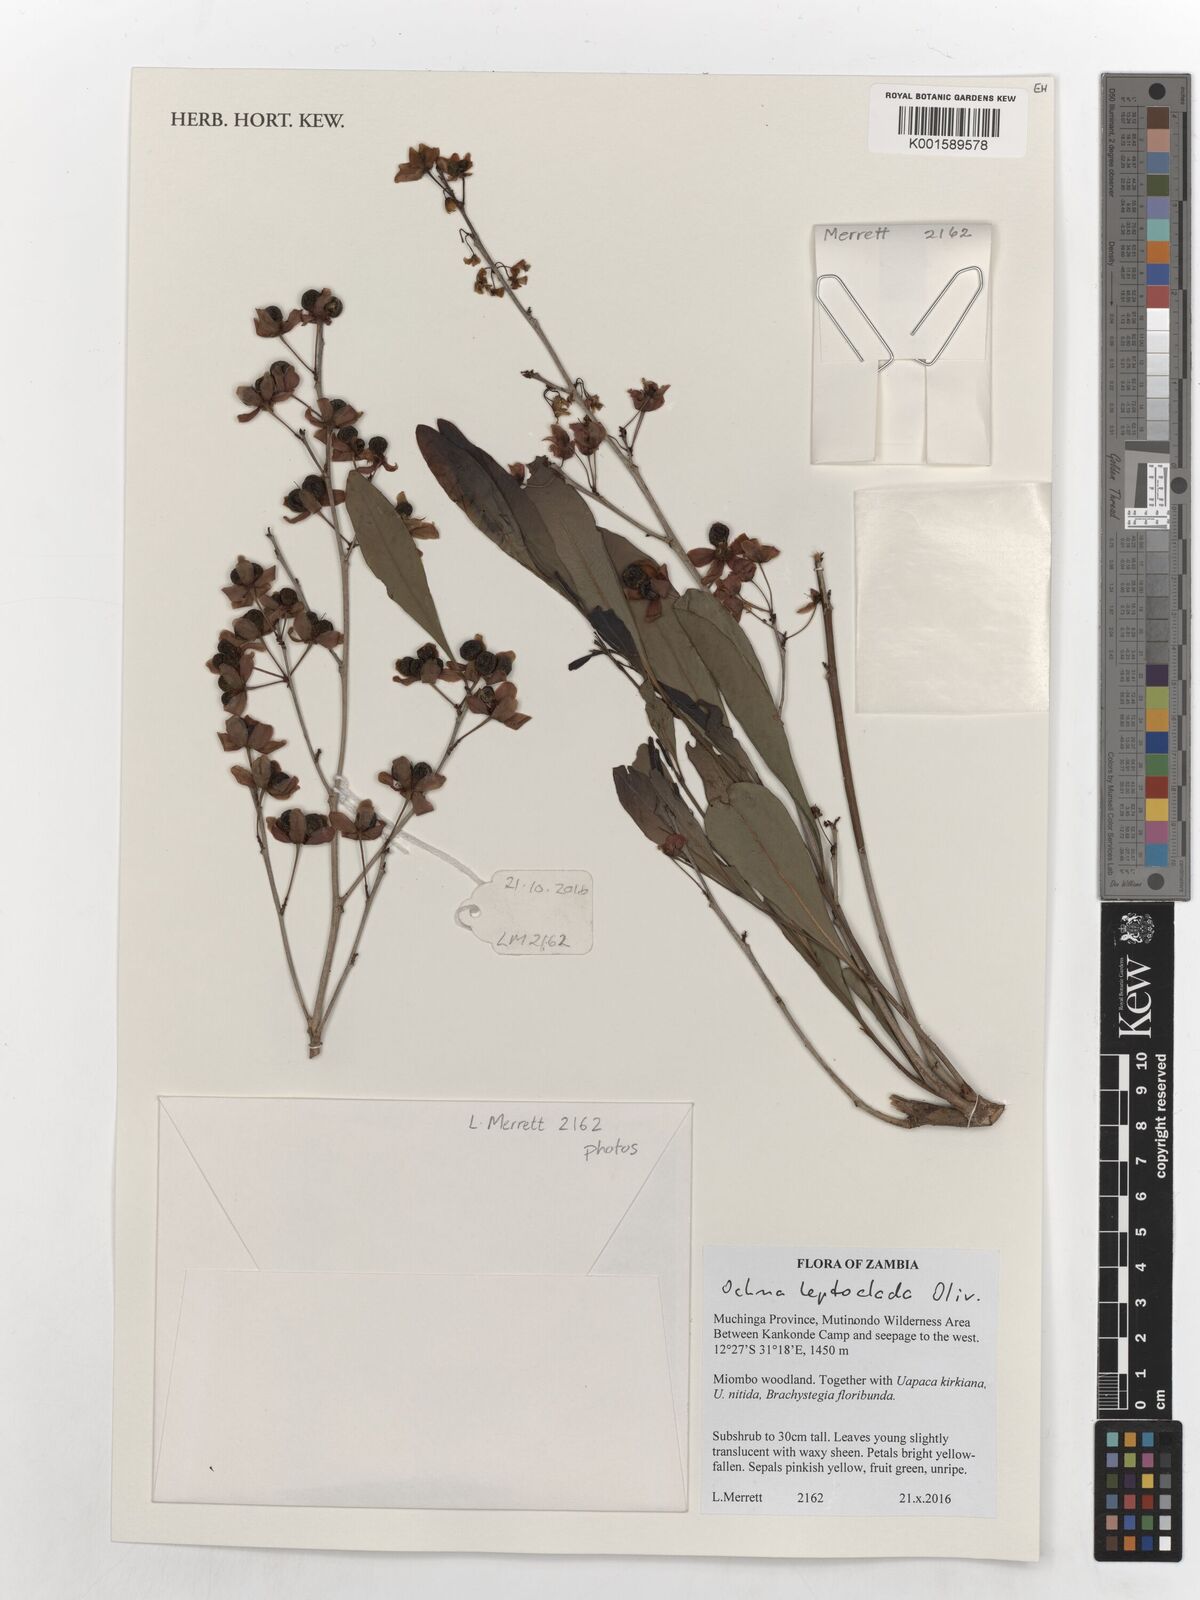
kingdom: Plantae
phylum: Tracheophyta
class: Magnoliopsida
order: Malpighiales
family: Ochnaceae
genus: Ochna
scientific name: Ochna leptoclada
